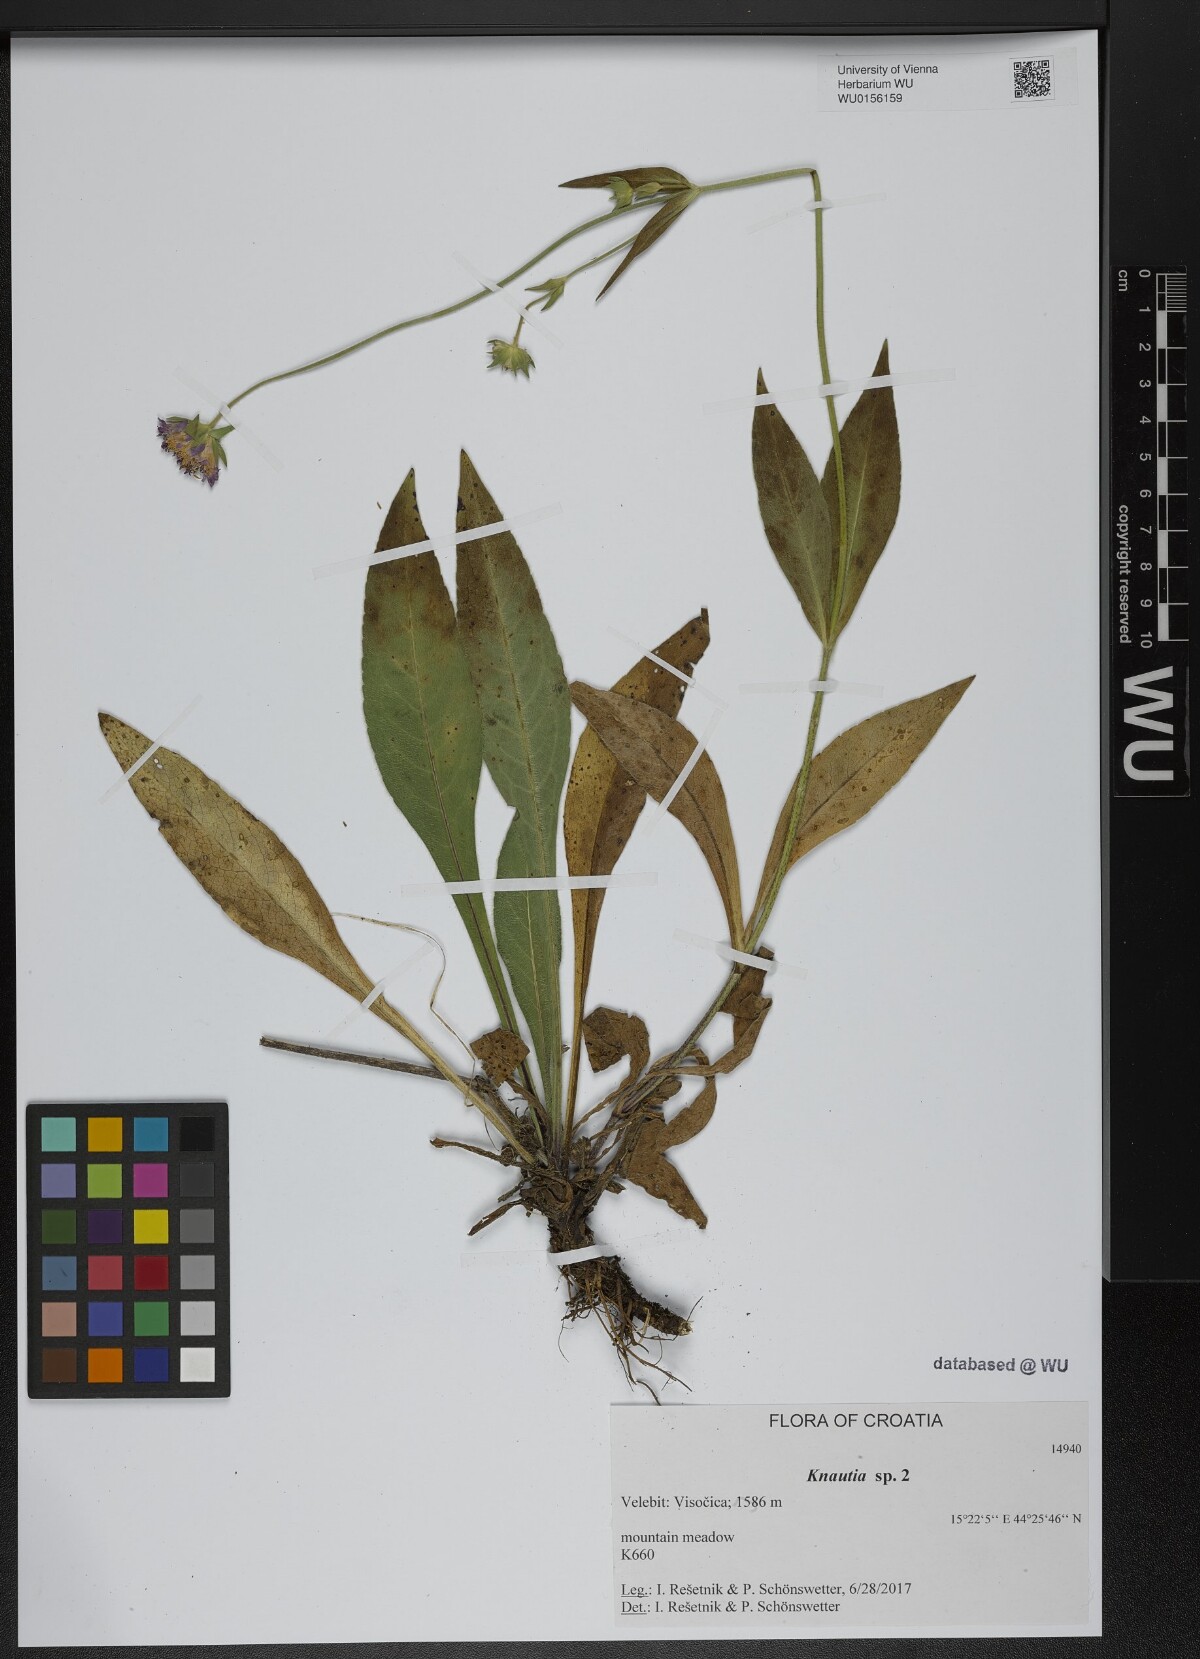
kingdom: Plantae
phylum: Tracheophyta
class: Magnoliopsida
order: Dipsacales
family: Caprifoliaceae
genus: Knautia
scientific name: Knautia
